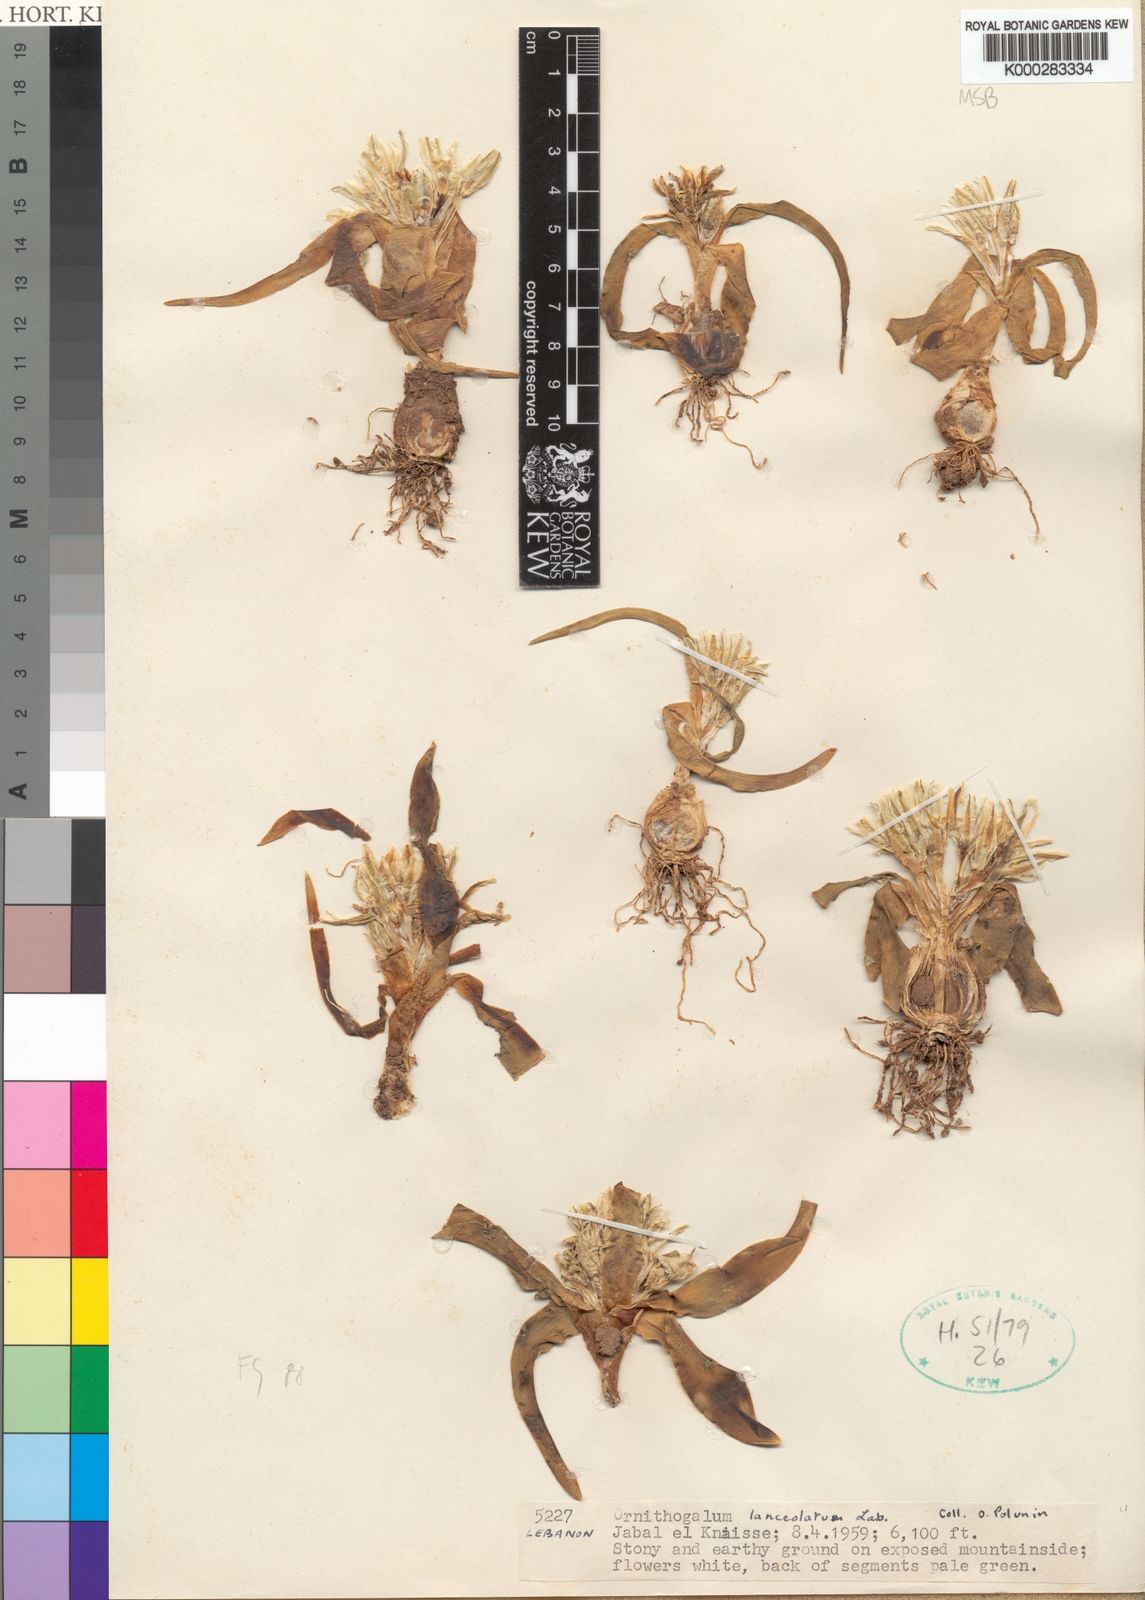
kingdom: Plantae
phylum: Tracheophyta
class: Liliopsida
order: Asparagales
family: Asparagaceae
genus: Ornithogalum
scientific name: Ornithogalum lanceolatum
